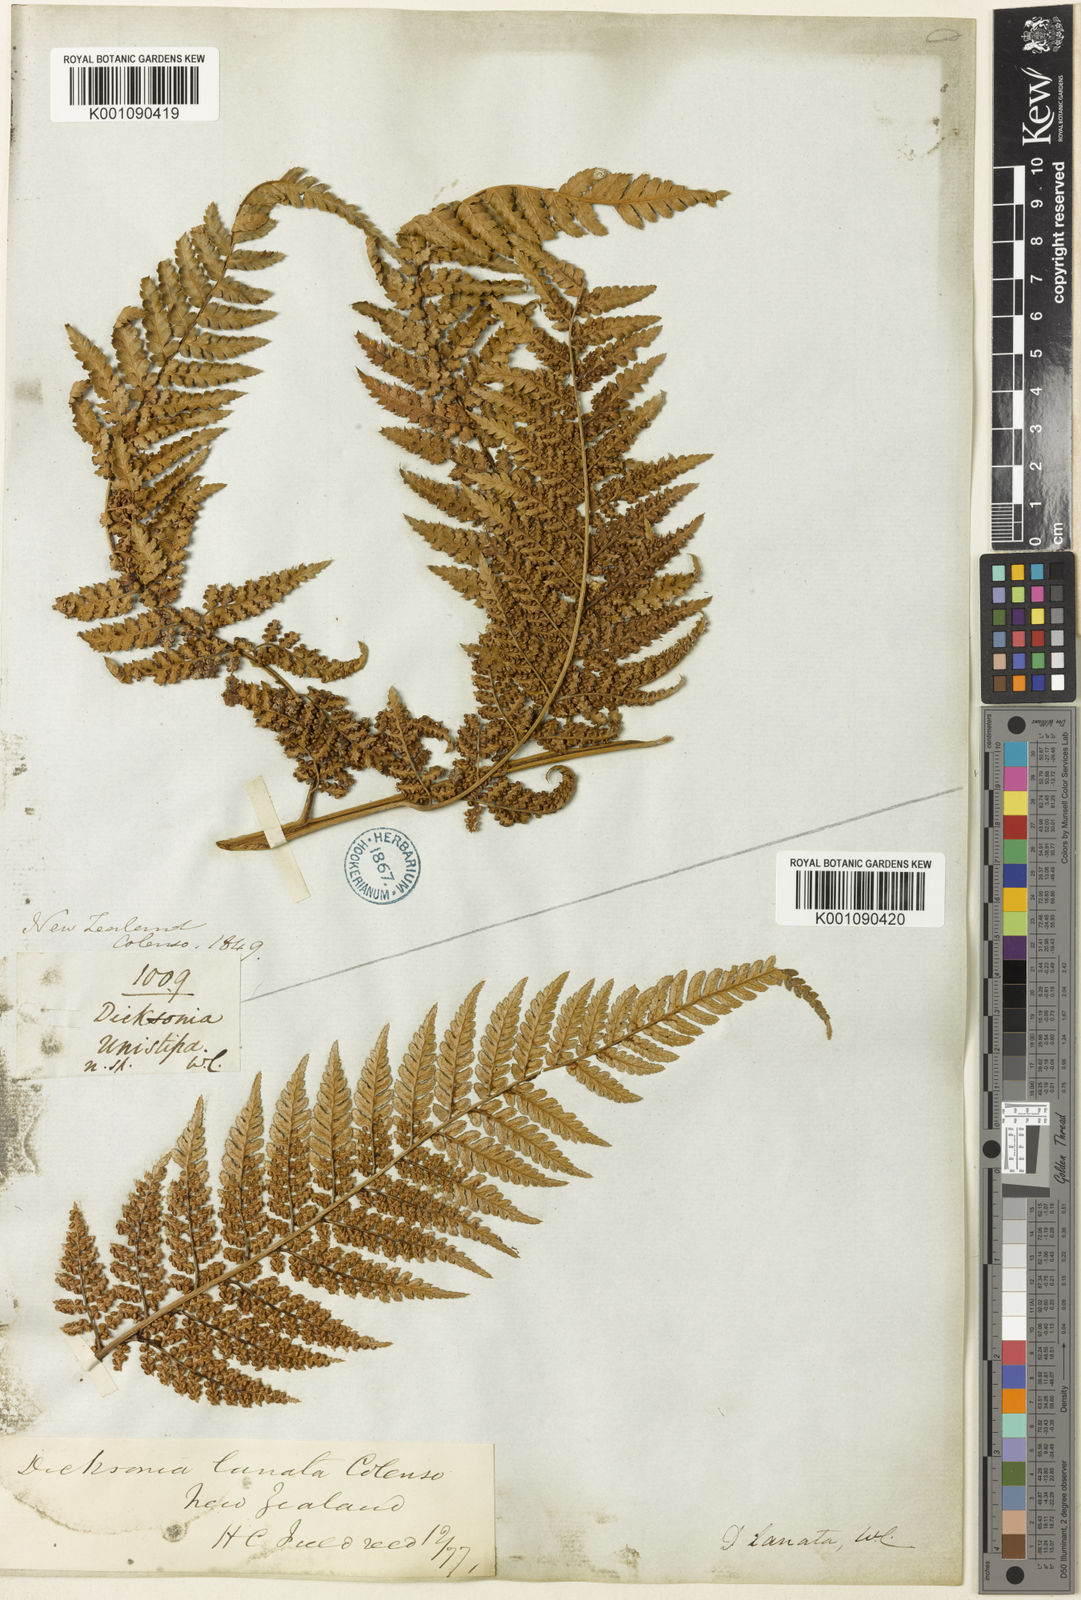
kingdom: Plantae
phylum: Tracheophyta
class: Polypodiopsida
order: Cyatheales
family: Dicksoniaceae
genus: Dicksonia
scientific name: Dicksonia lanata
